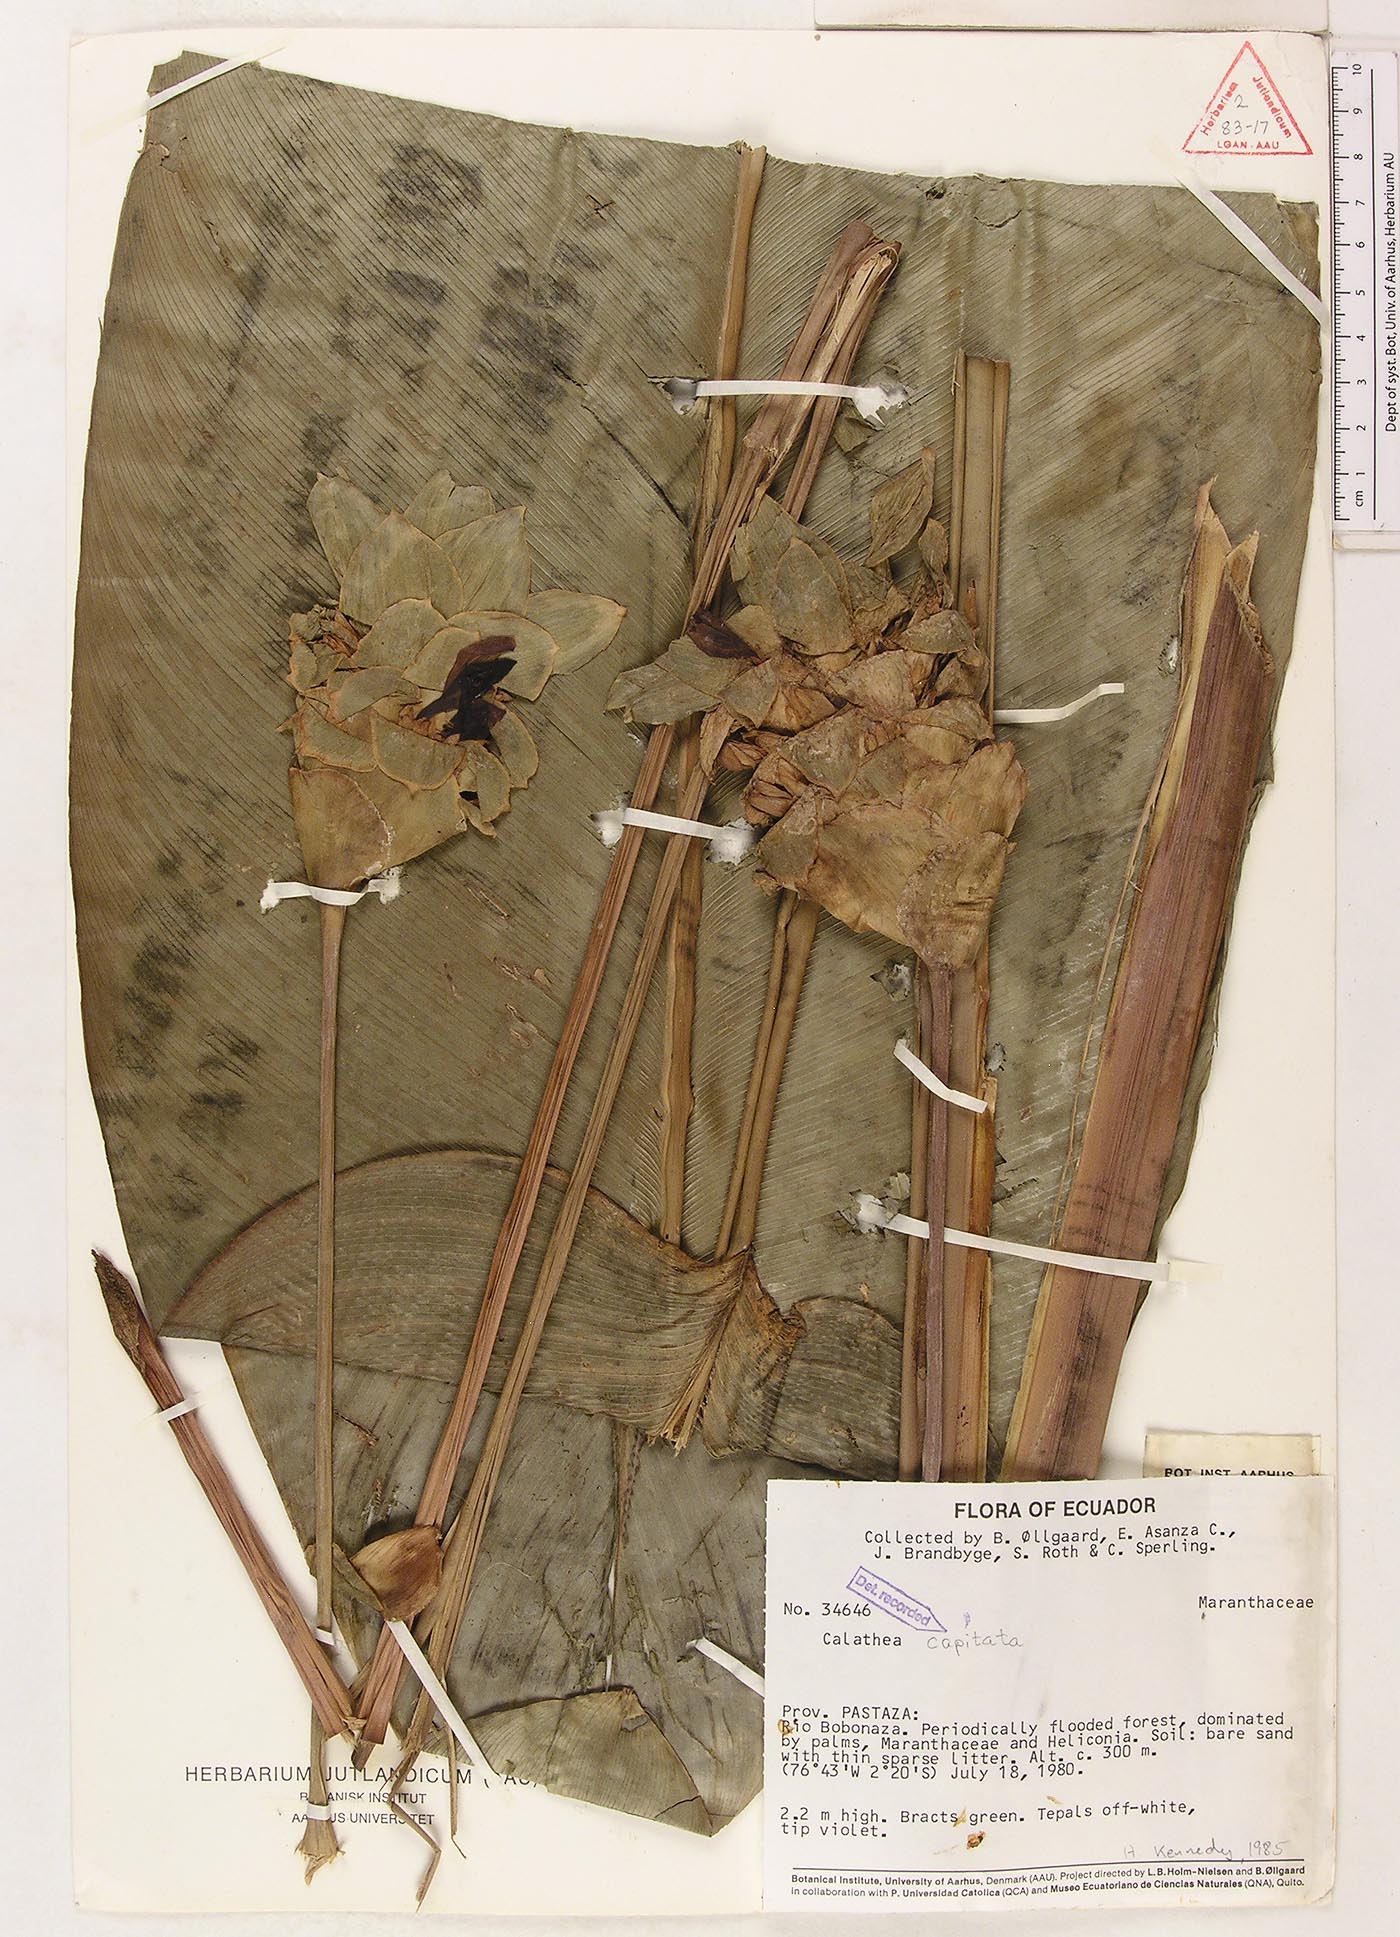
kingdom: Plantae
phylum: Tracheophyta
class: Liliopsida
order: Zingiberales
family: Marantaceae
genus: Goeppertia
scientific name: Goeppertia capitata
